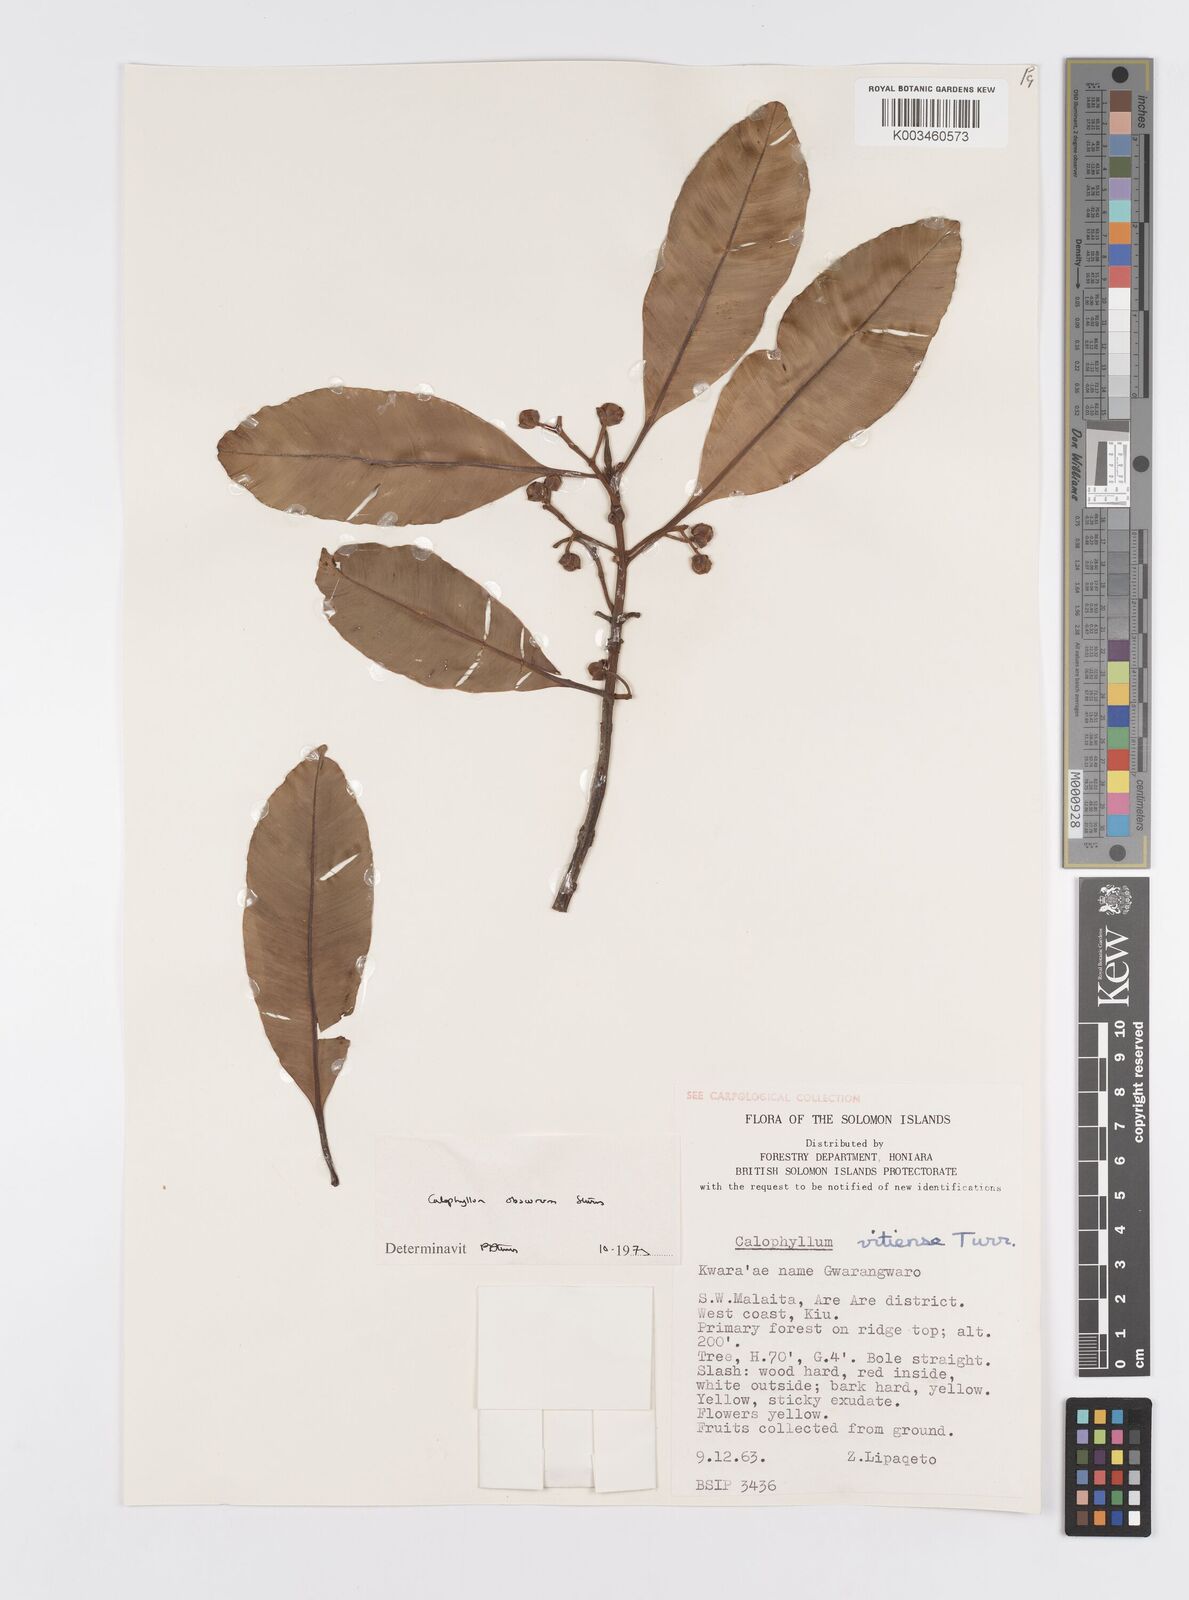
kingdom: Plantae
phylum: Tracheophyta
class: Magnoliopsida
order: Malpighiales
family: Calophyllaceae
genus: Calophyllum
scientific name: Calophyllum obscurum
